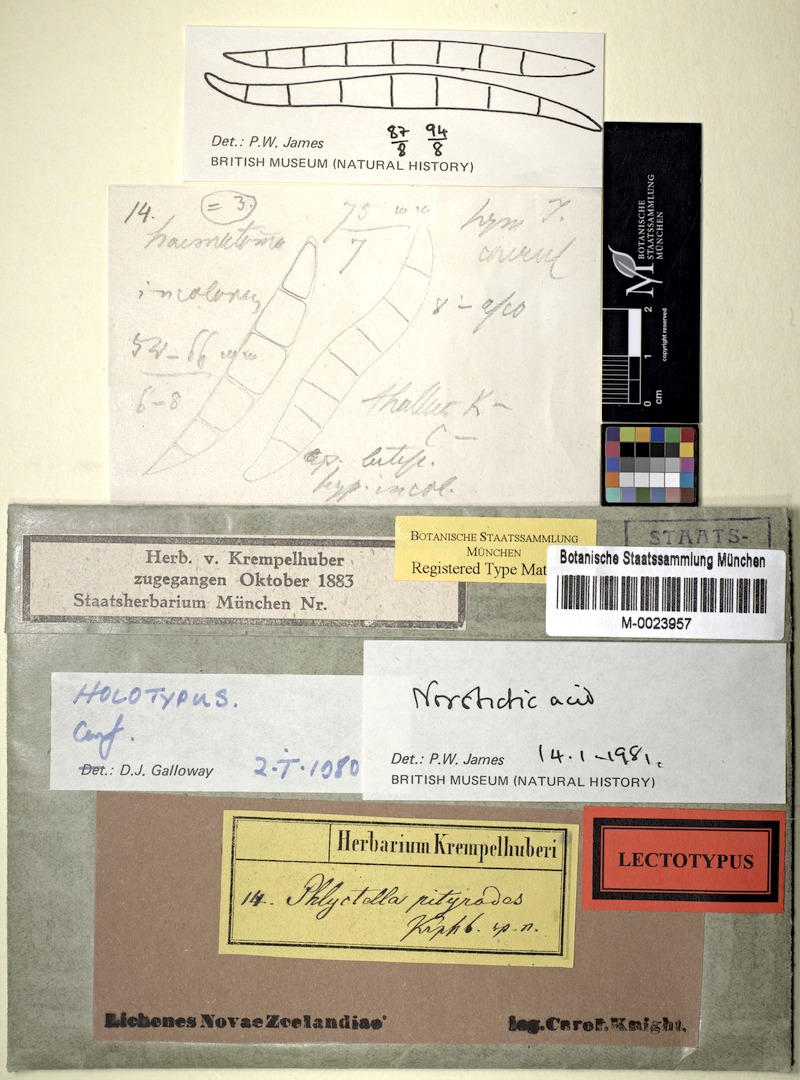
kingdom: Fungi
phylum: Ascomycota
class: Lecanoromycetes
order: Ostropales
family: Phlyctidaceae
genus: Phlyctis
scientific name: Phlyctis
